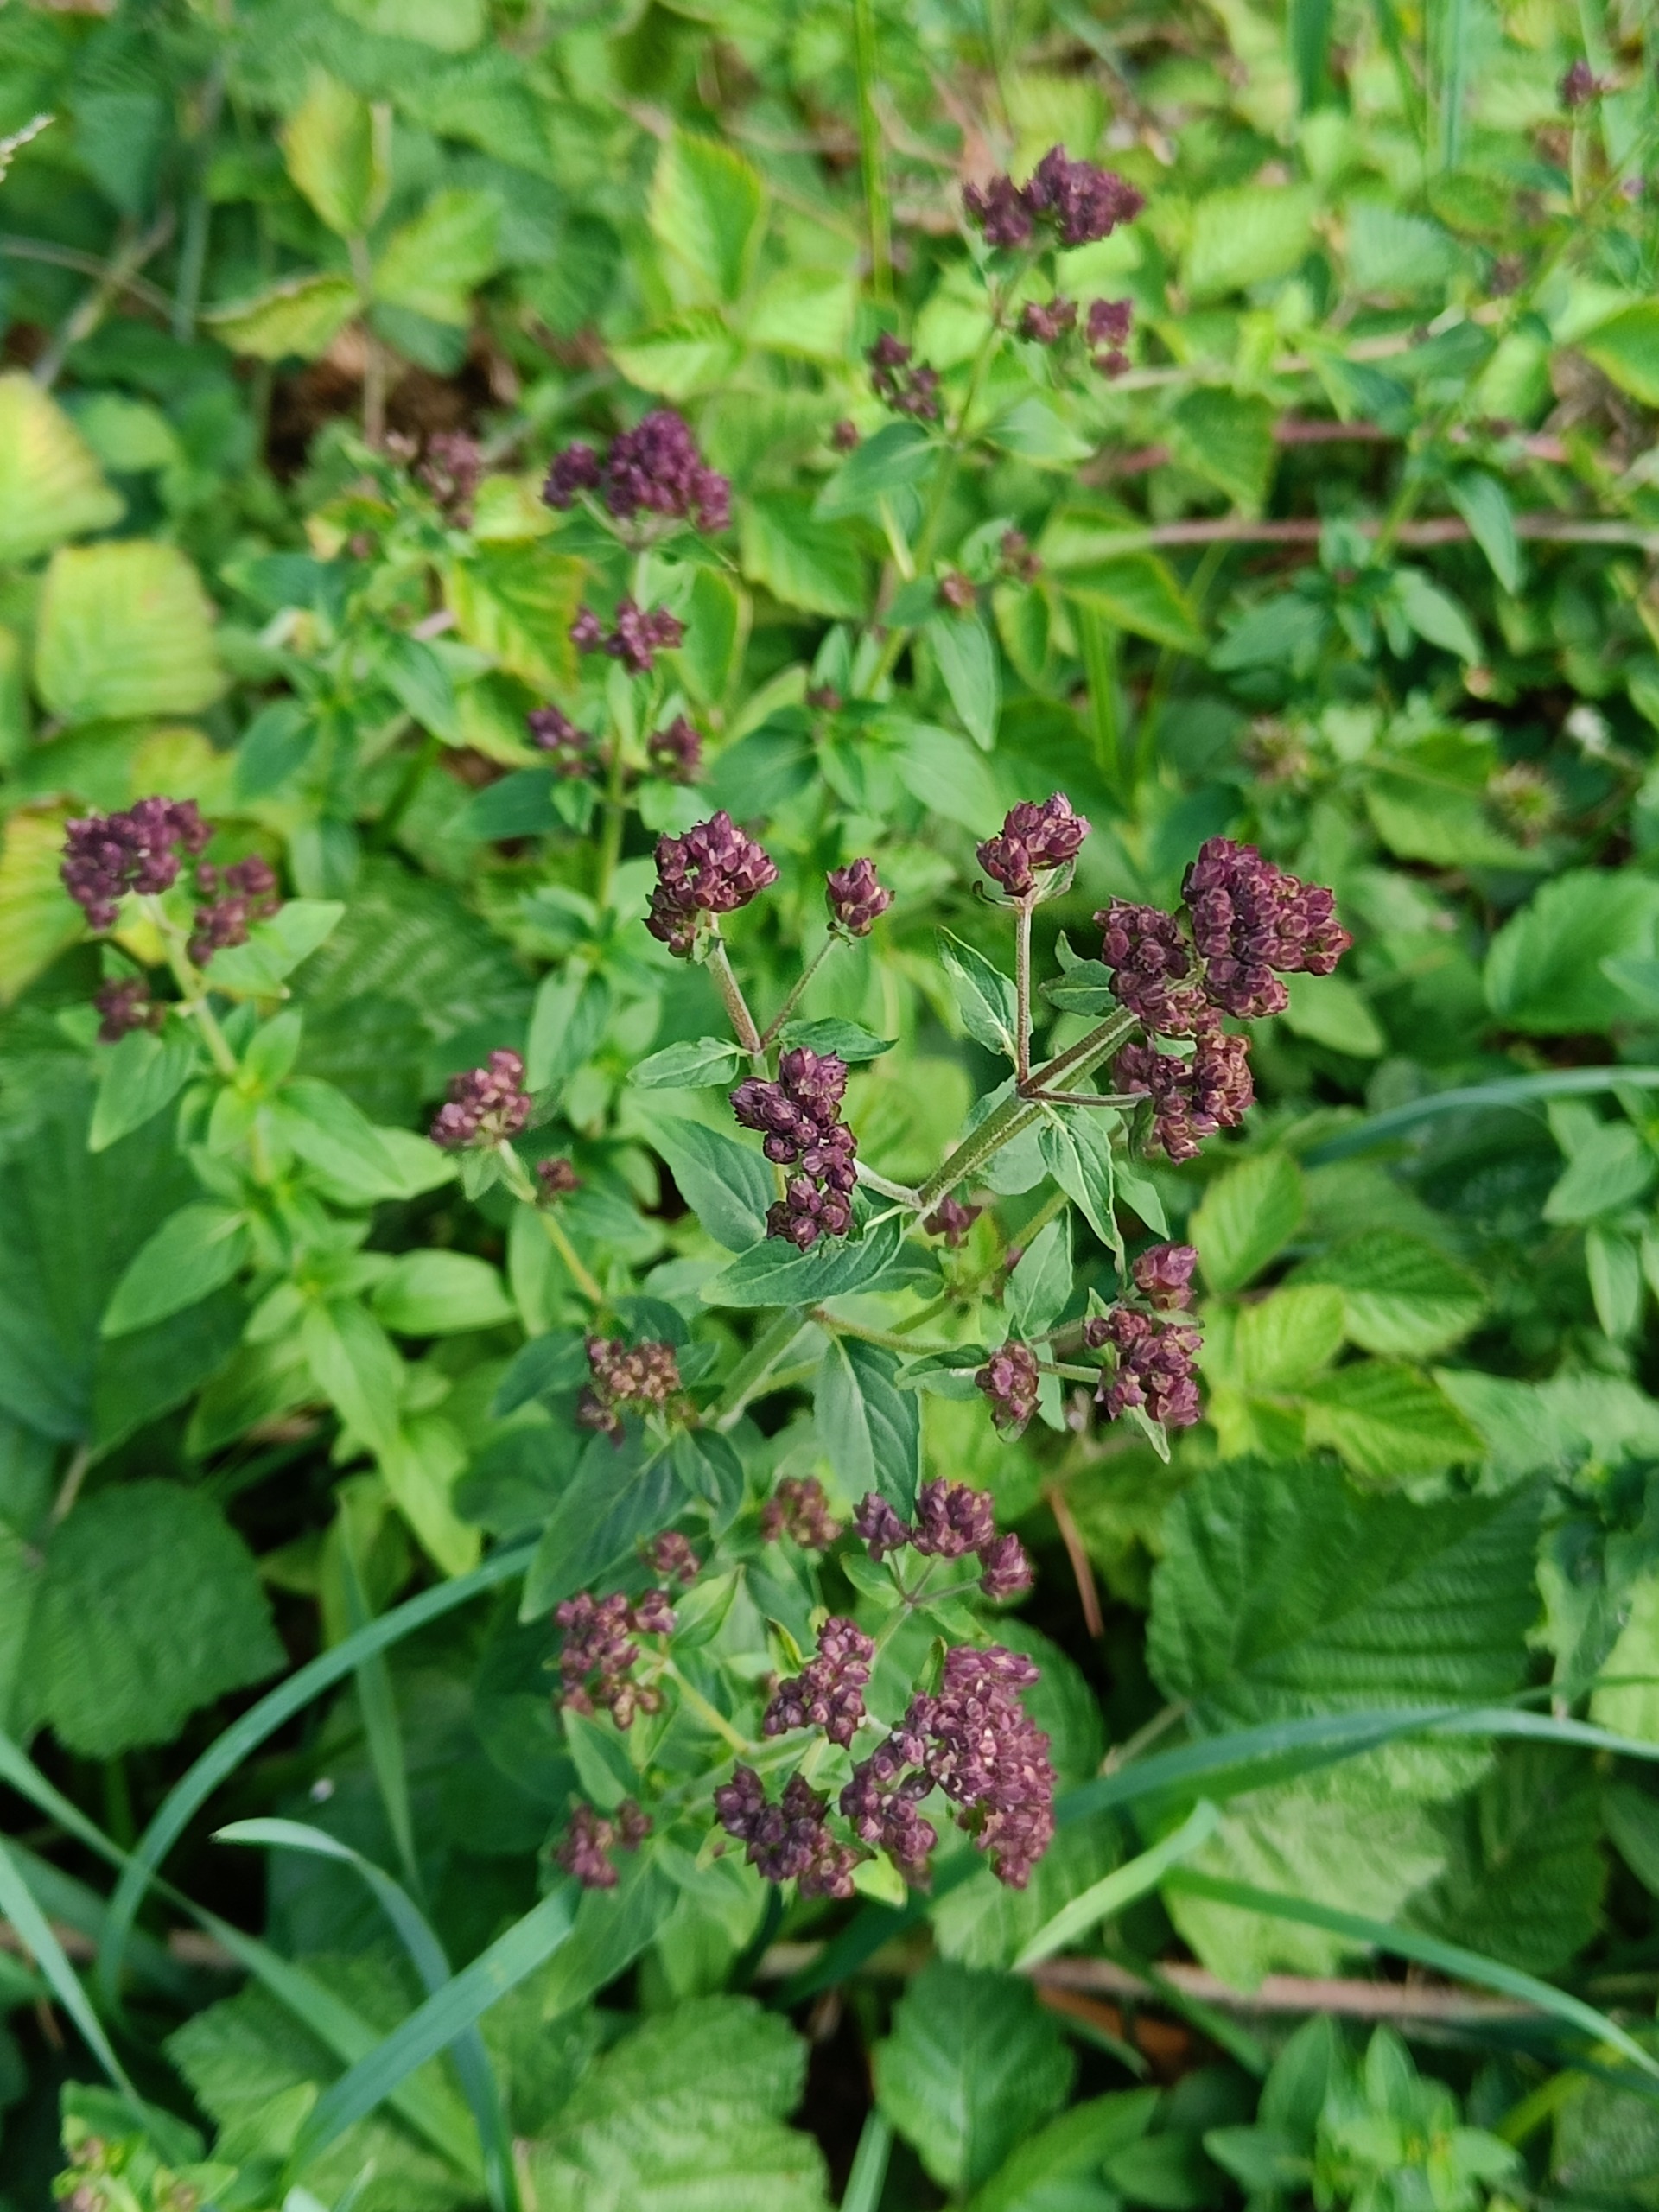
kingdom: Plantae
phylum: Tracheophyta
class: Magnoliopsida
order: Lamiales
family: Lamiaceae
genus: Origanum
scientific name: Origanum vulgare
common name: Merian
